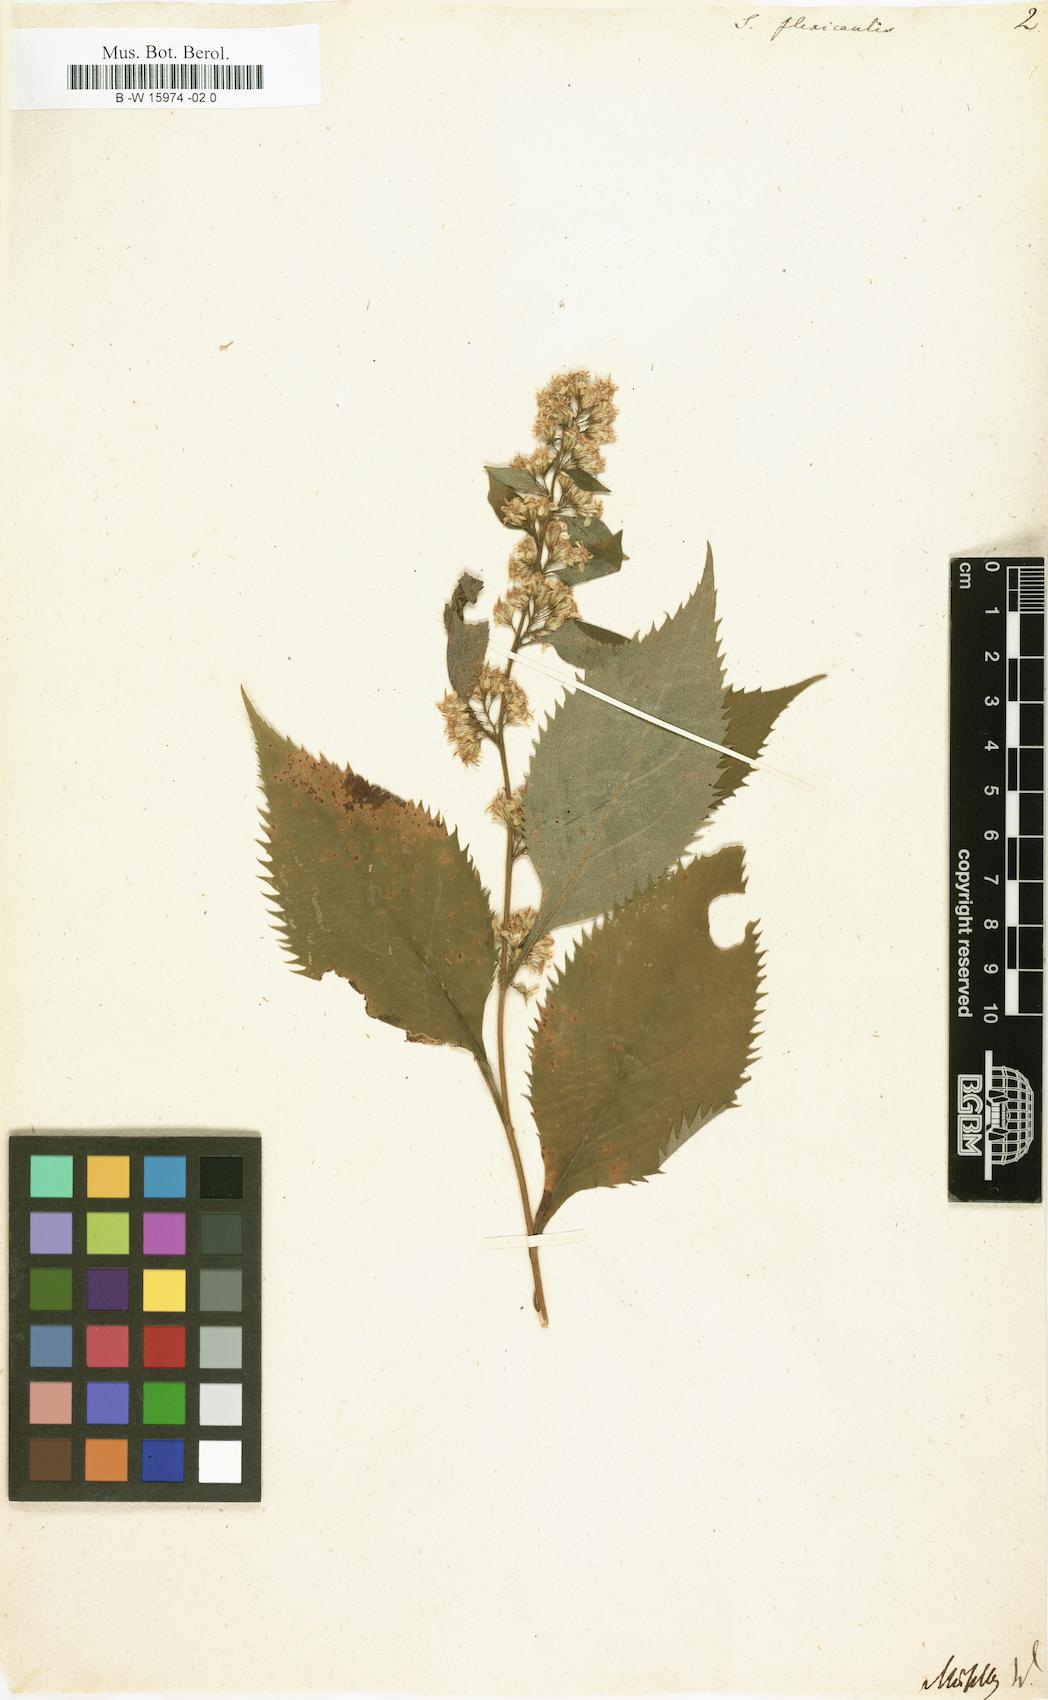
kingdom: Plantae
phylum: Tracheophyta
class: Magnoliopsida
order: Asterales
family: Asteraceae
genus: Solidago
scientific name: Solidago flexicaulis
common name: Zig-zag goldenrod
